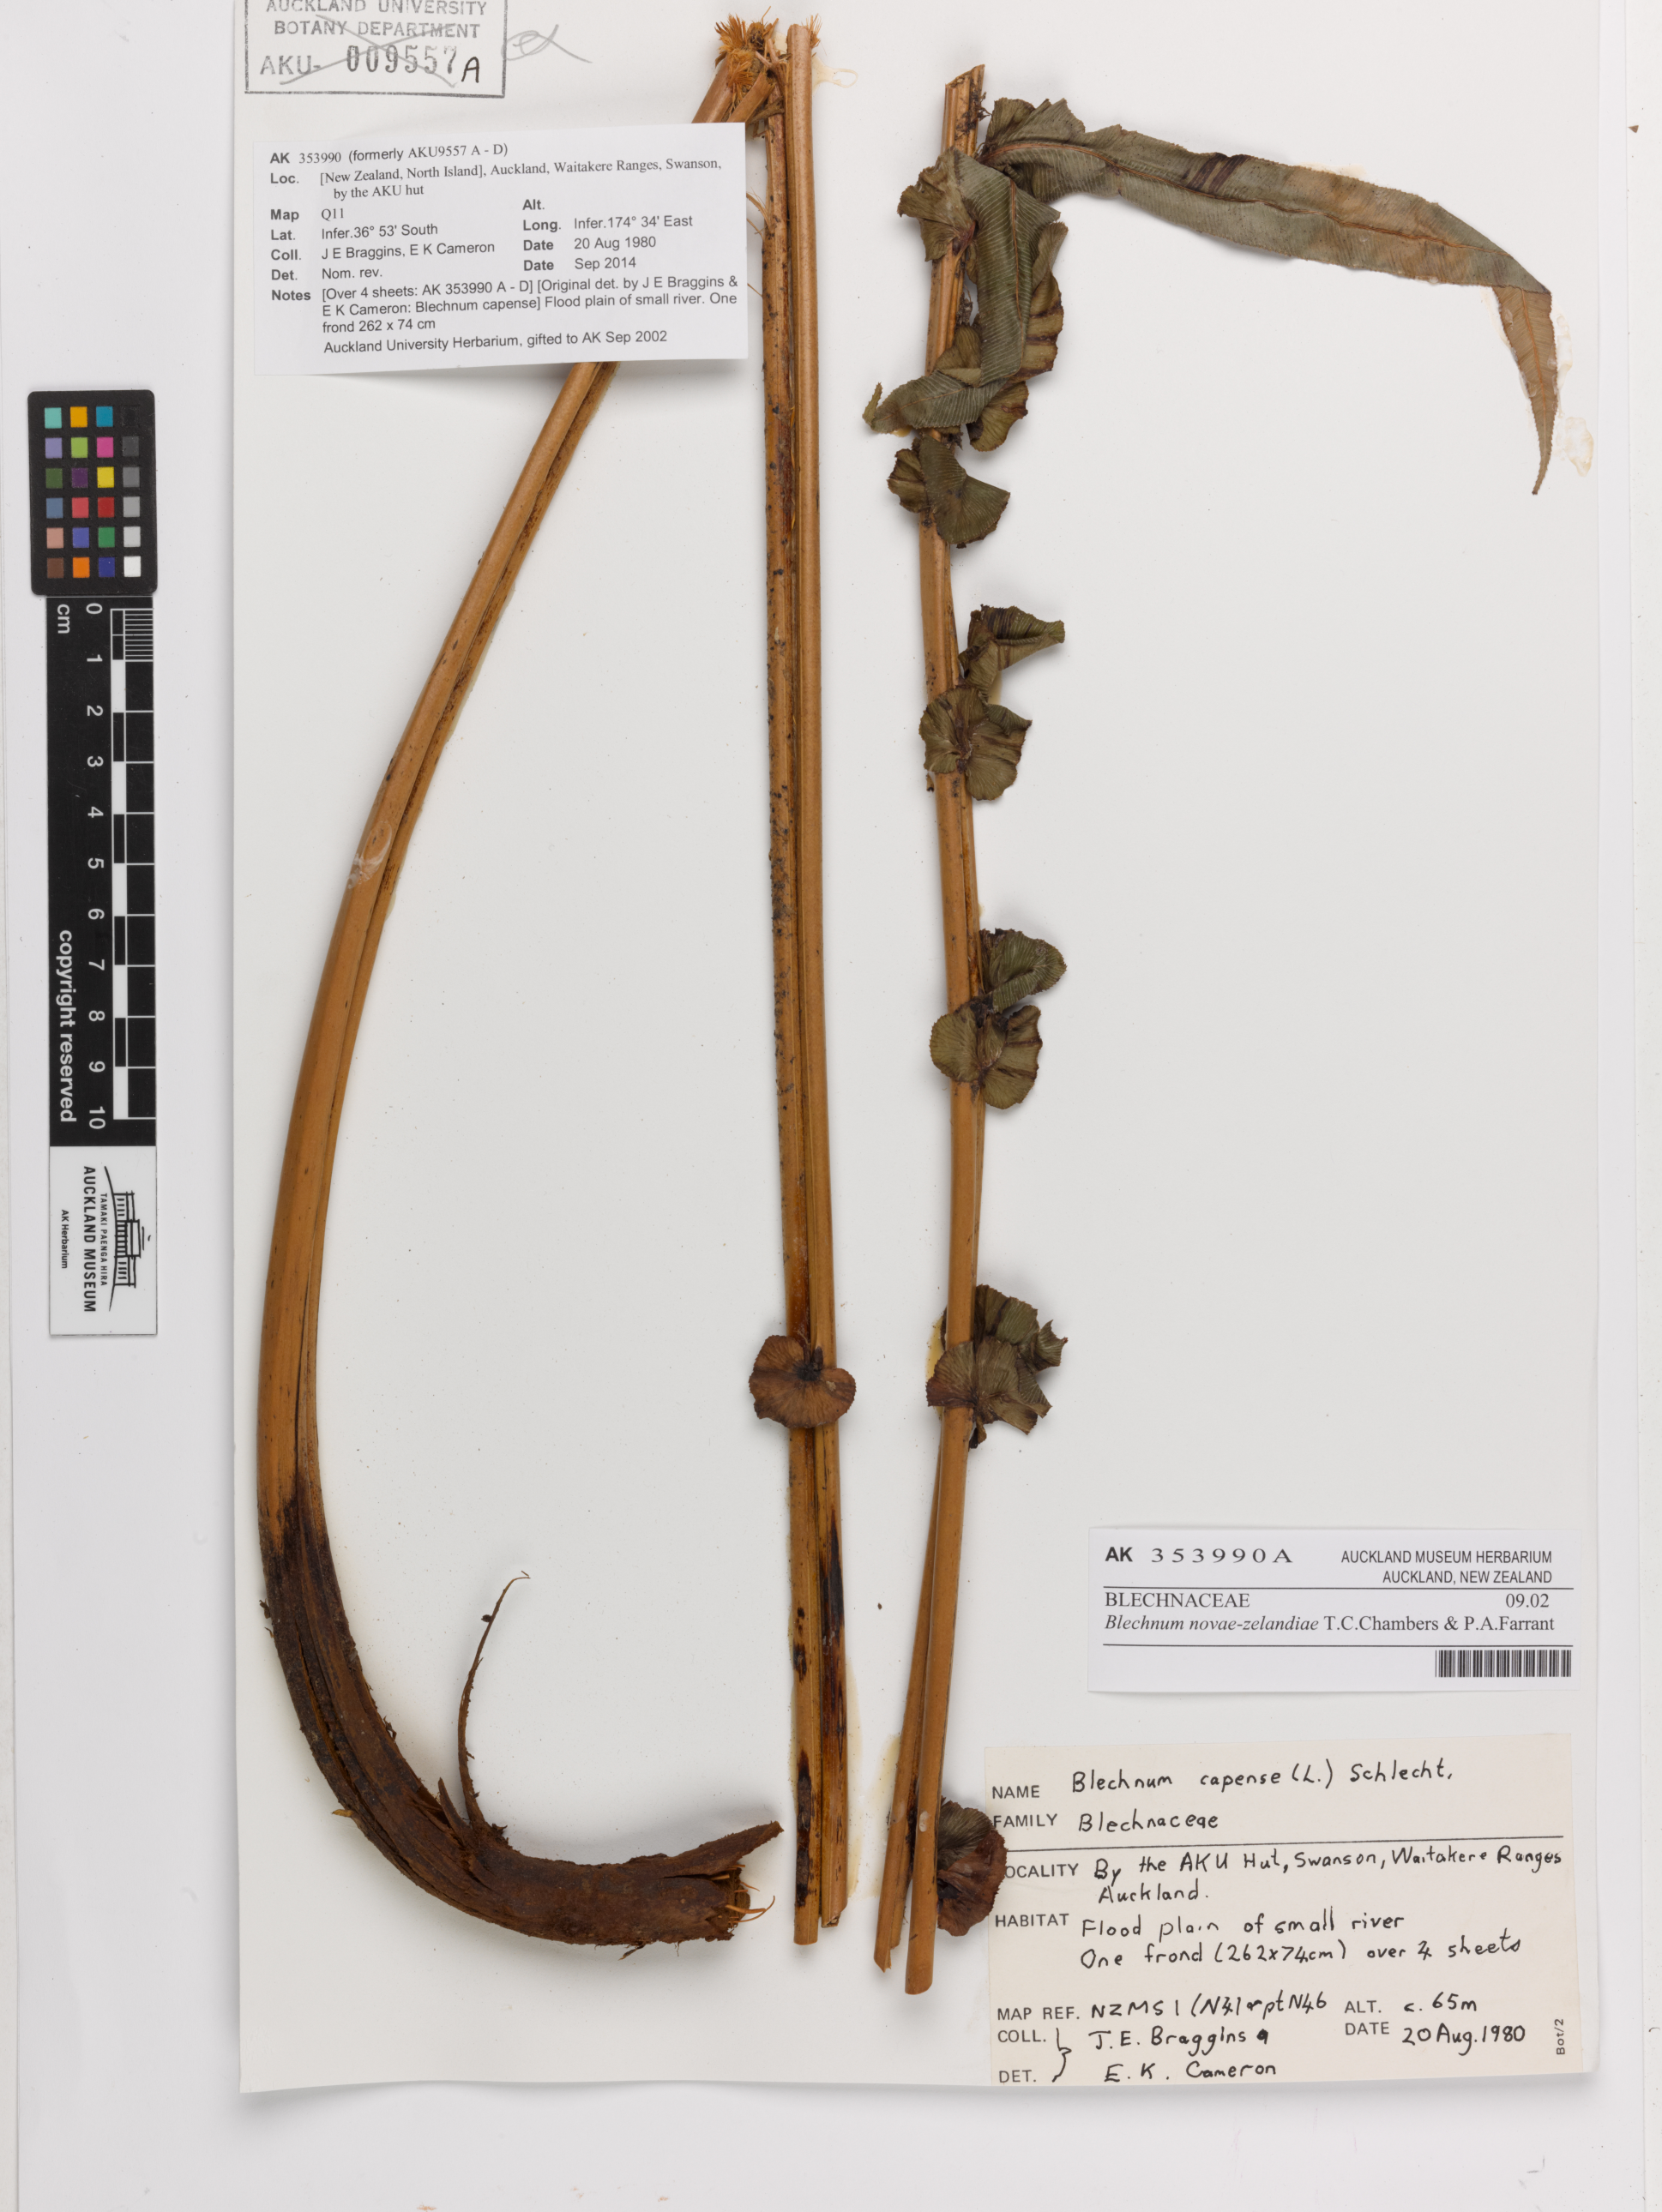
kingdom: Plantae
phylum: Tracheophyta
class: Polypodiopsida
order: Polypodiales
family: Blechnaceae
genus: Parablechnum
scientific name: Parablechnum novae-zelandiae
